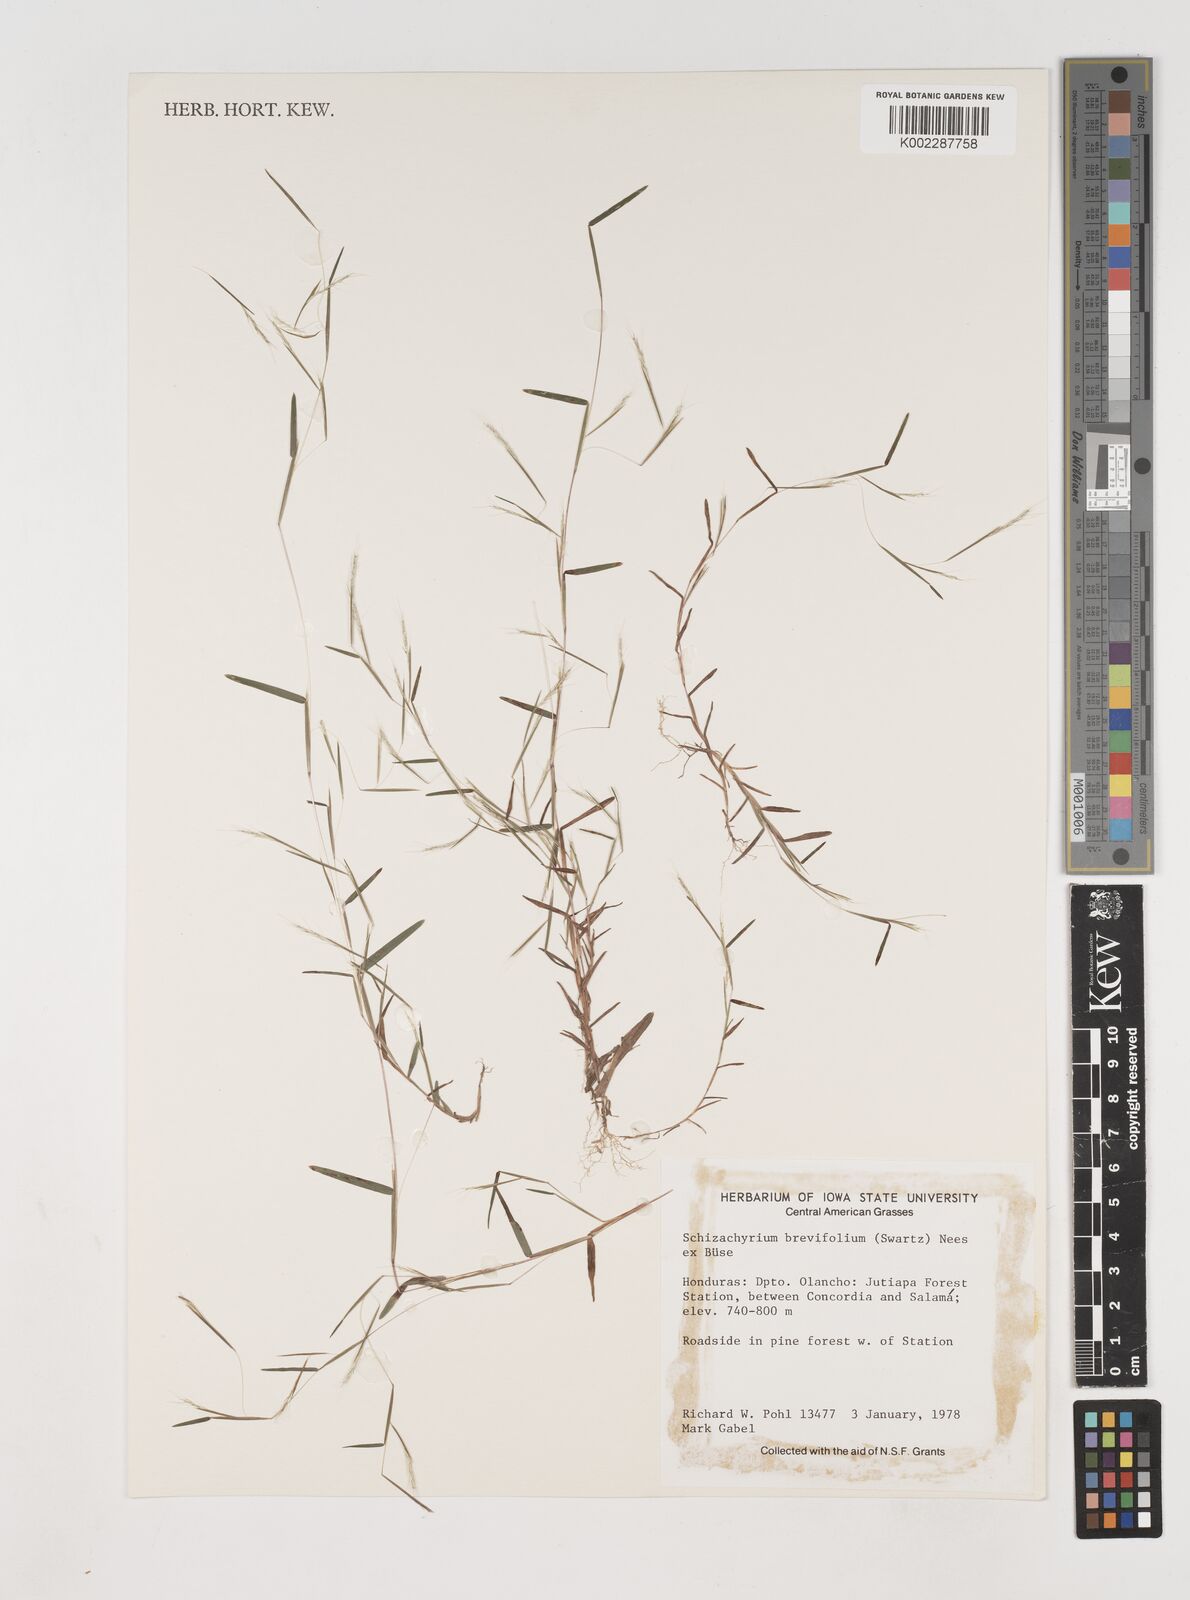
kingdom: Plantae
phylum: Tracheophyta
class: Liliopsida
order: Poales
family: Poaceae
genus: Schizachyrium
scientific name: Schizachyrium brevifolium
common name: Serillo dulce
